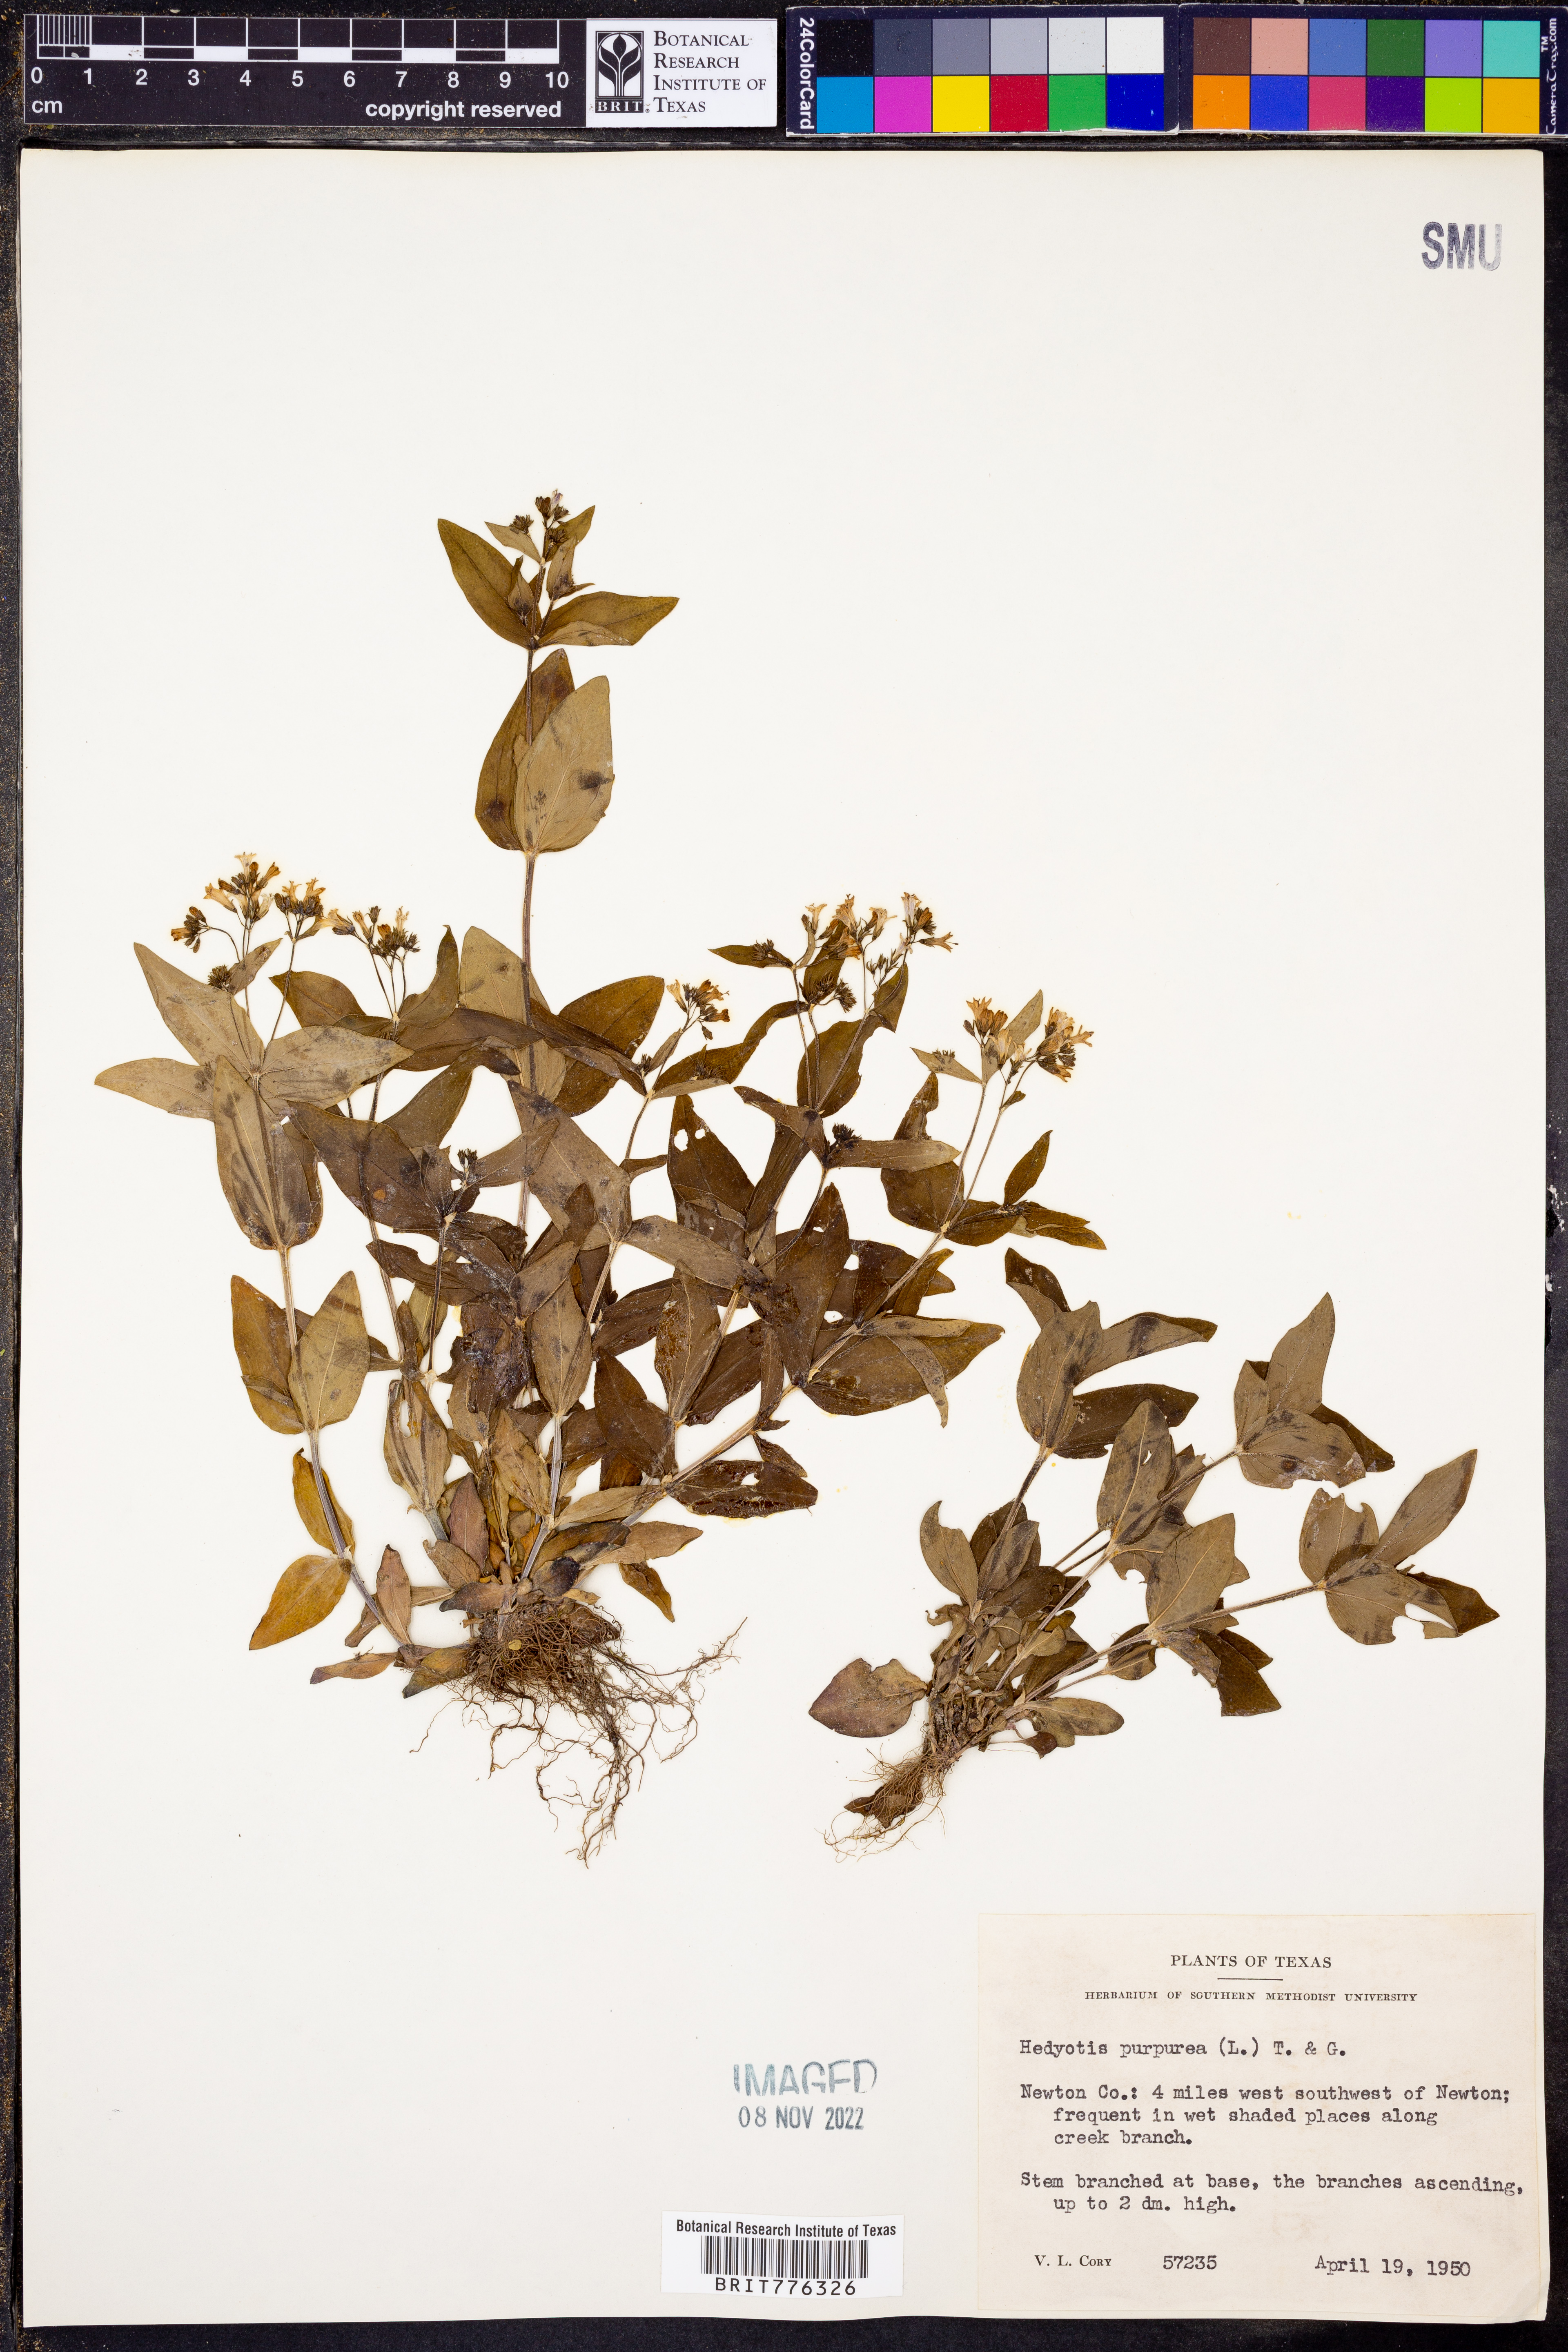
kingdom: Plantae
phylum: Tracheophyta
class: Magnoliopsida
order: Gentianales
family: Rubiaceae
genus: Houstonia
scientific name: Houstonia purpurea
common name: Summer bluet
